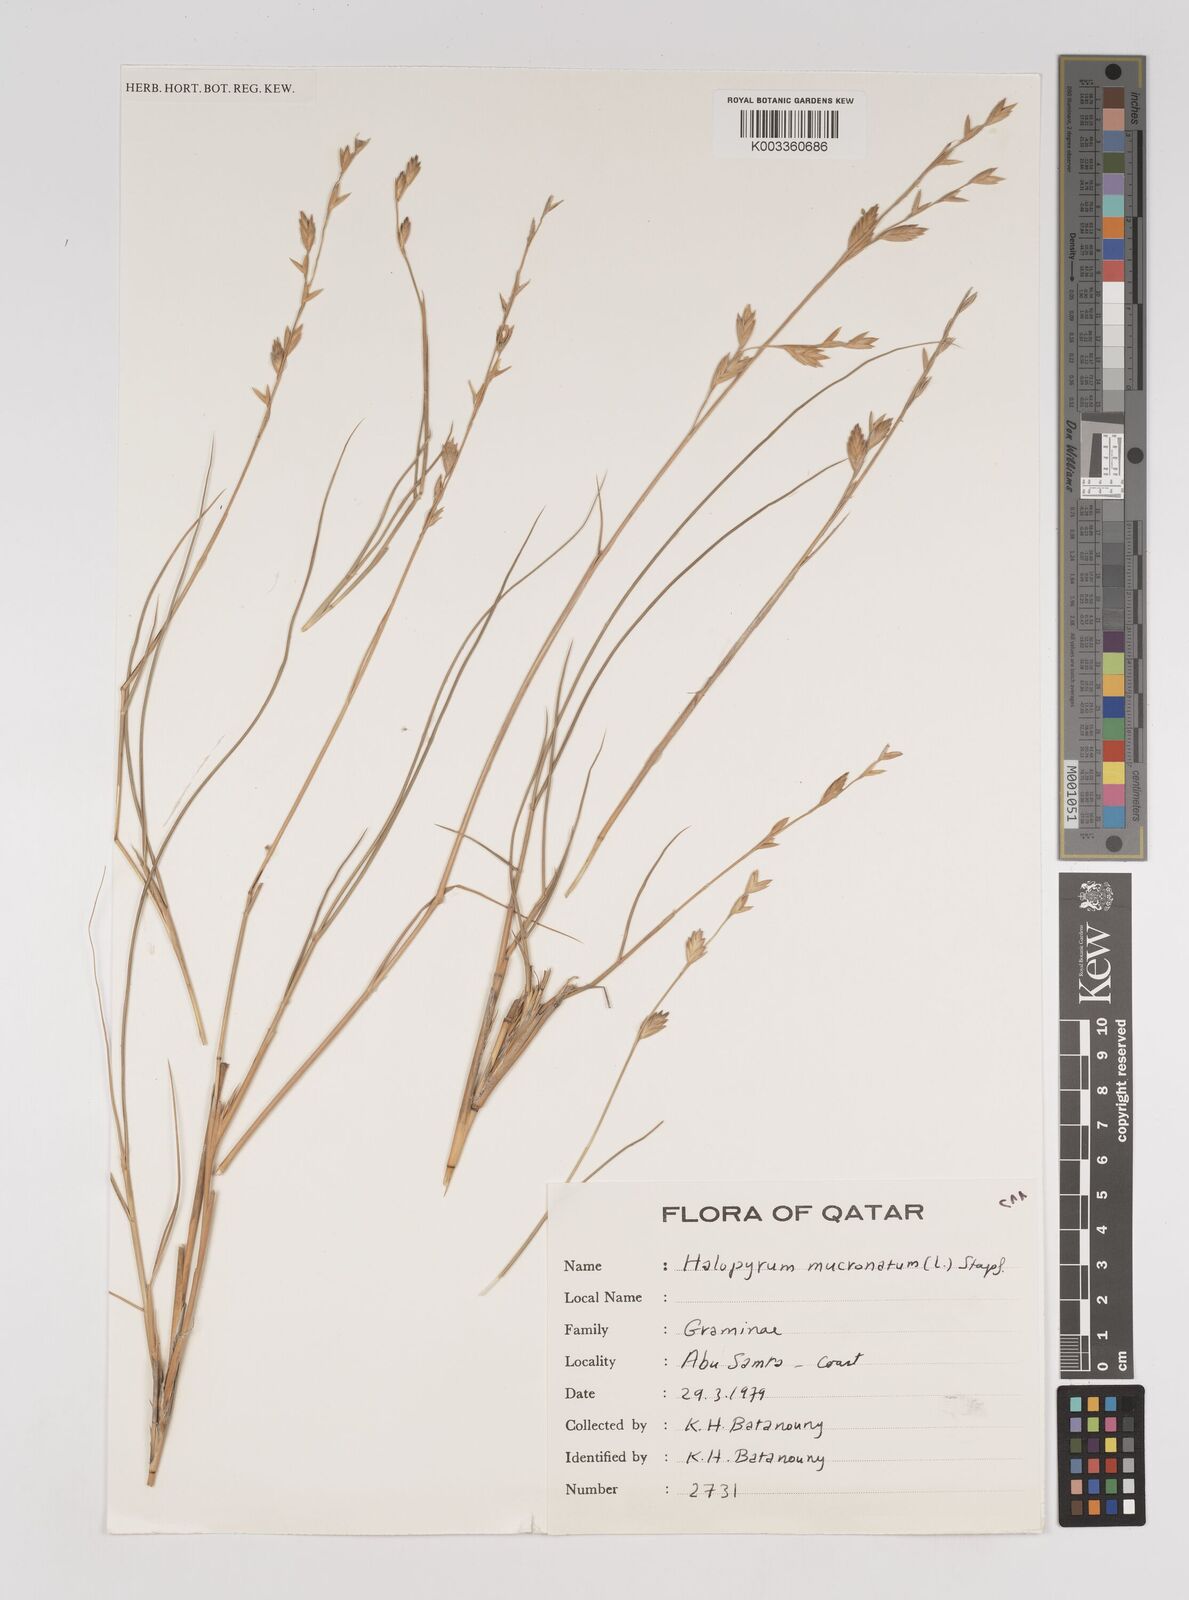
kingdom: Plantae
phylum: Tracheophyta
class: Liliopsida
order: Poales
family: Poaceae
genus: Halopyrum
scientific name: Halopyrum mucronatum
